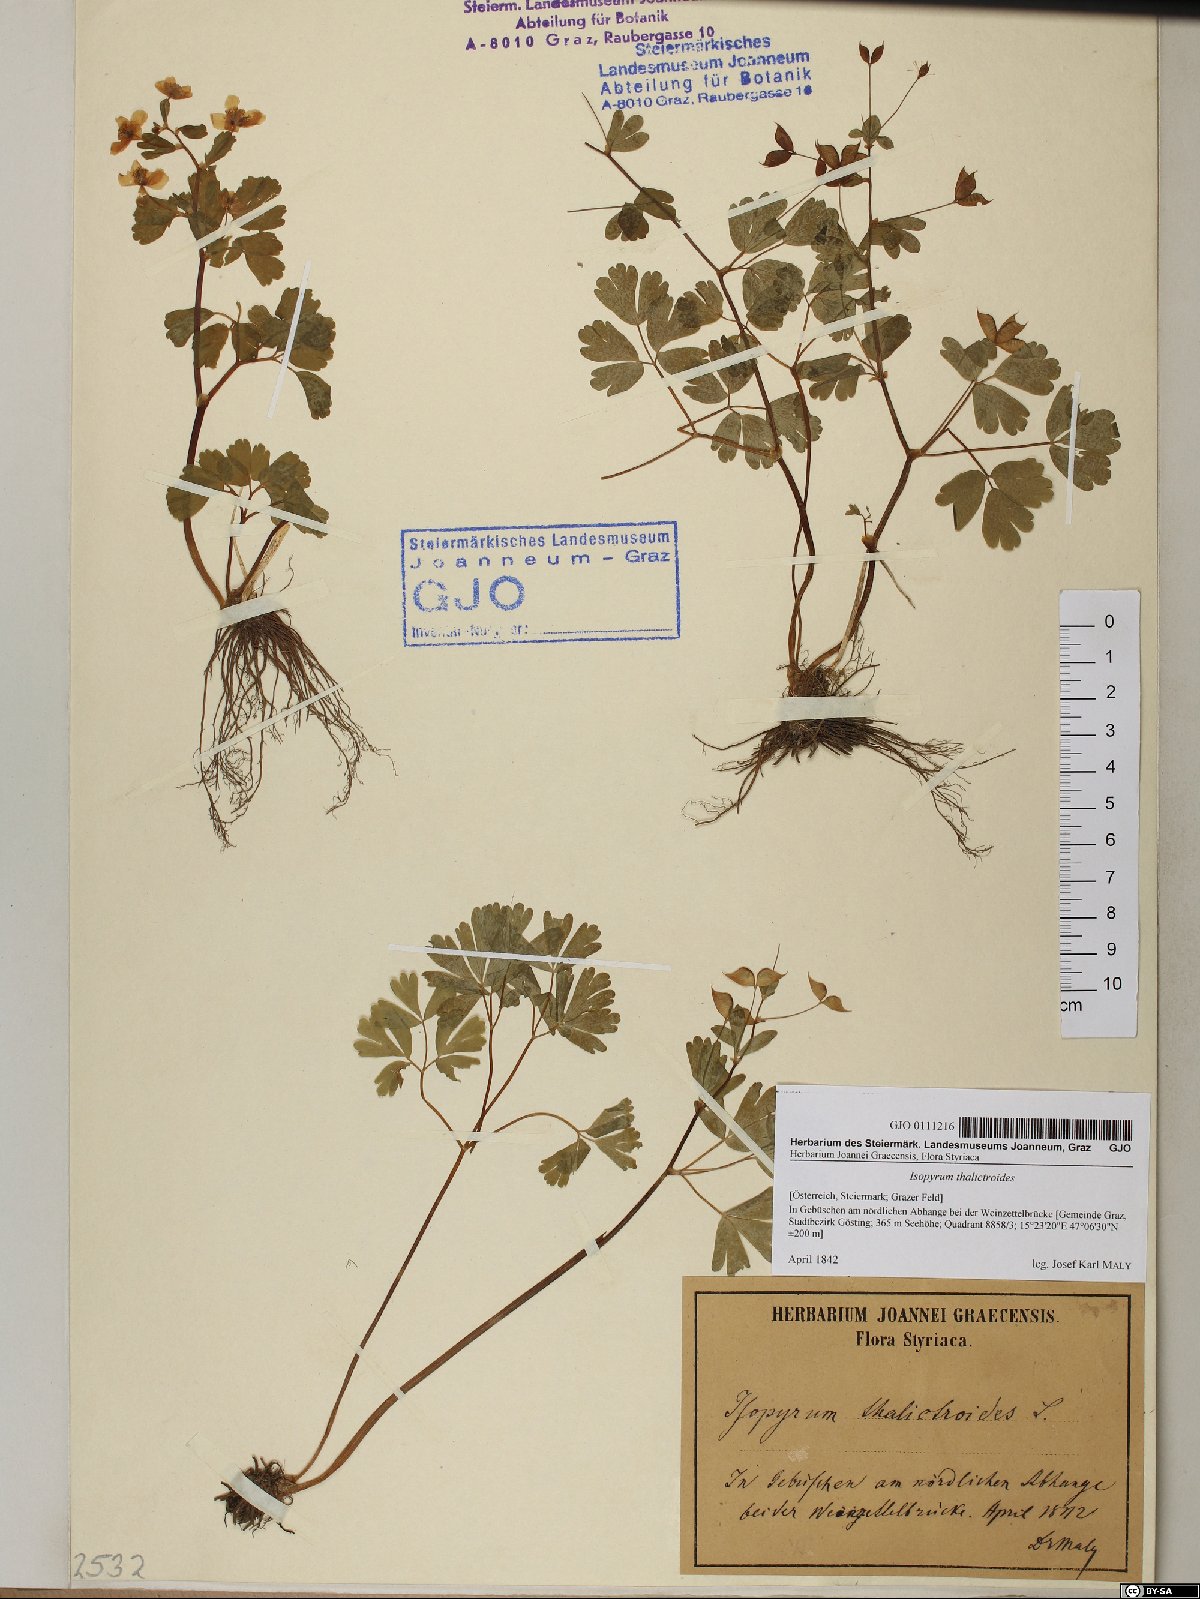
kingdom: Plantae
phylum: Tracheophyta
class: Magnoliopsida
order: Ranunculales
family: Ranunculaceae
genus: Isopyrum
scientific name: Isopyrum thalictroides
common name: Isopyrum
